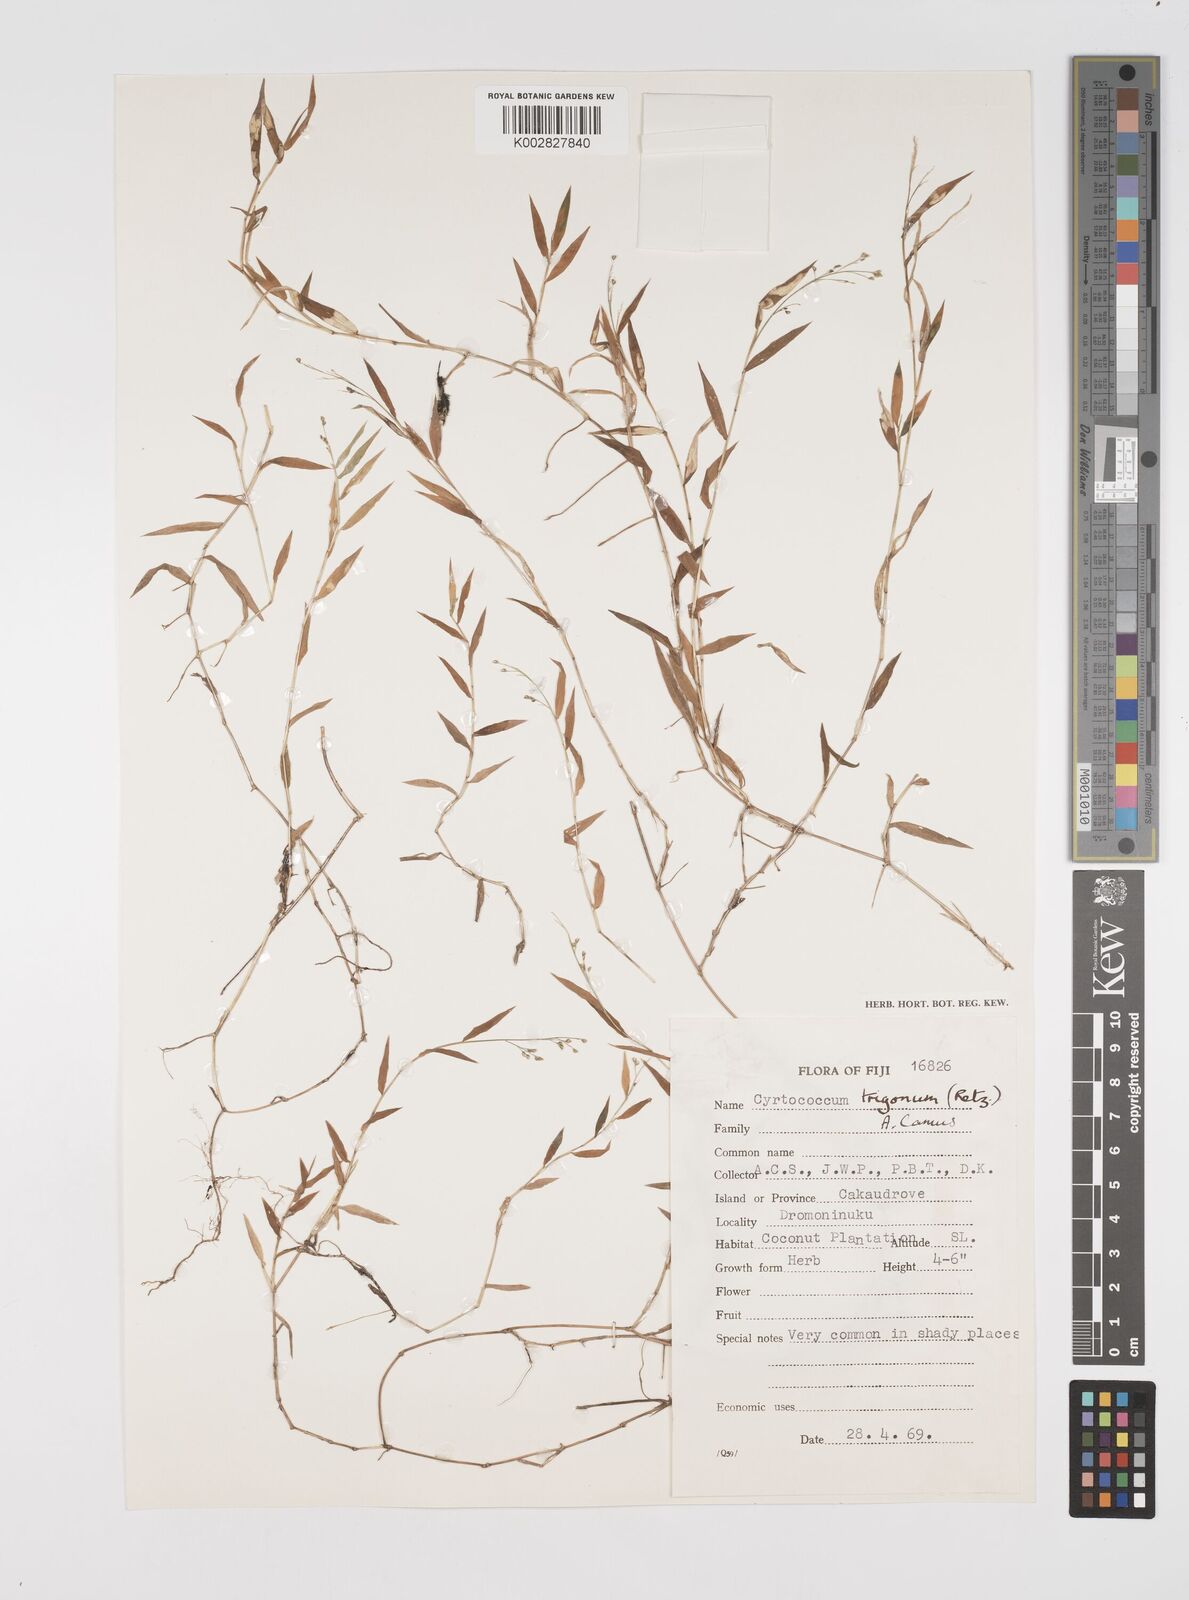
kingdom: Plantae
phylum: Tracheophyta
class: Liliopsida
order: Poales
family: Poaceae
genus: Cyrtococcum
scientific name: Cyrtococcum trigonum
